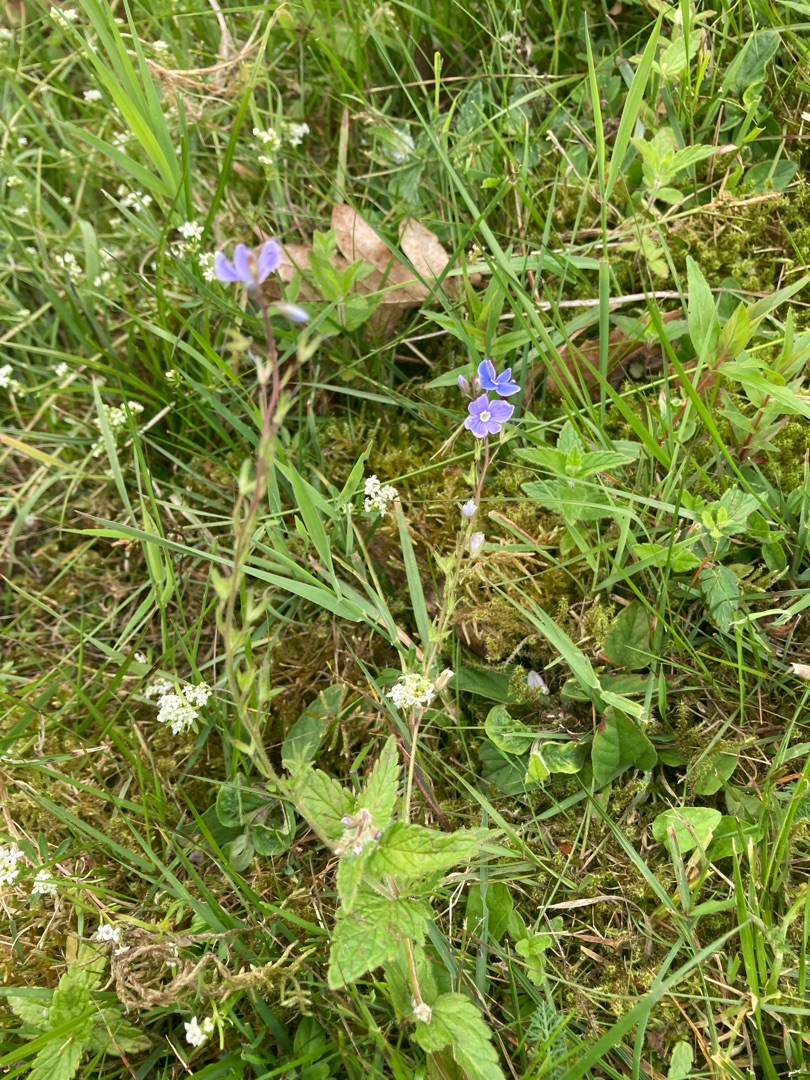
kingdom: Plantae
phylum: Tracheophyta
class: Magnoliopsida
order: Lamiales
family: Plantaginaceae
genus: Veronica
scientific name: Veronica chamaedrys
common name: Tveskægget ærenpris
